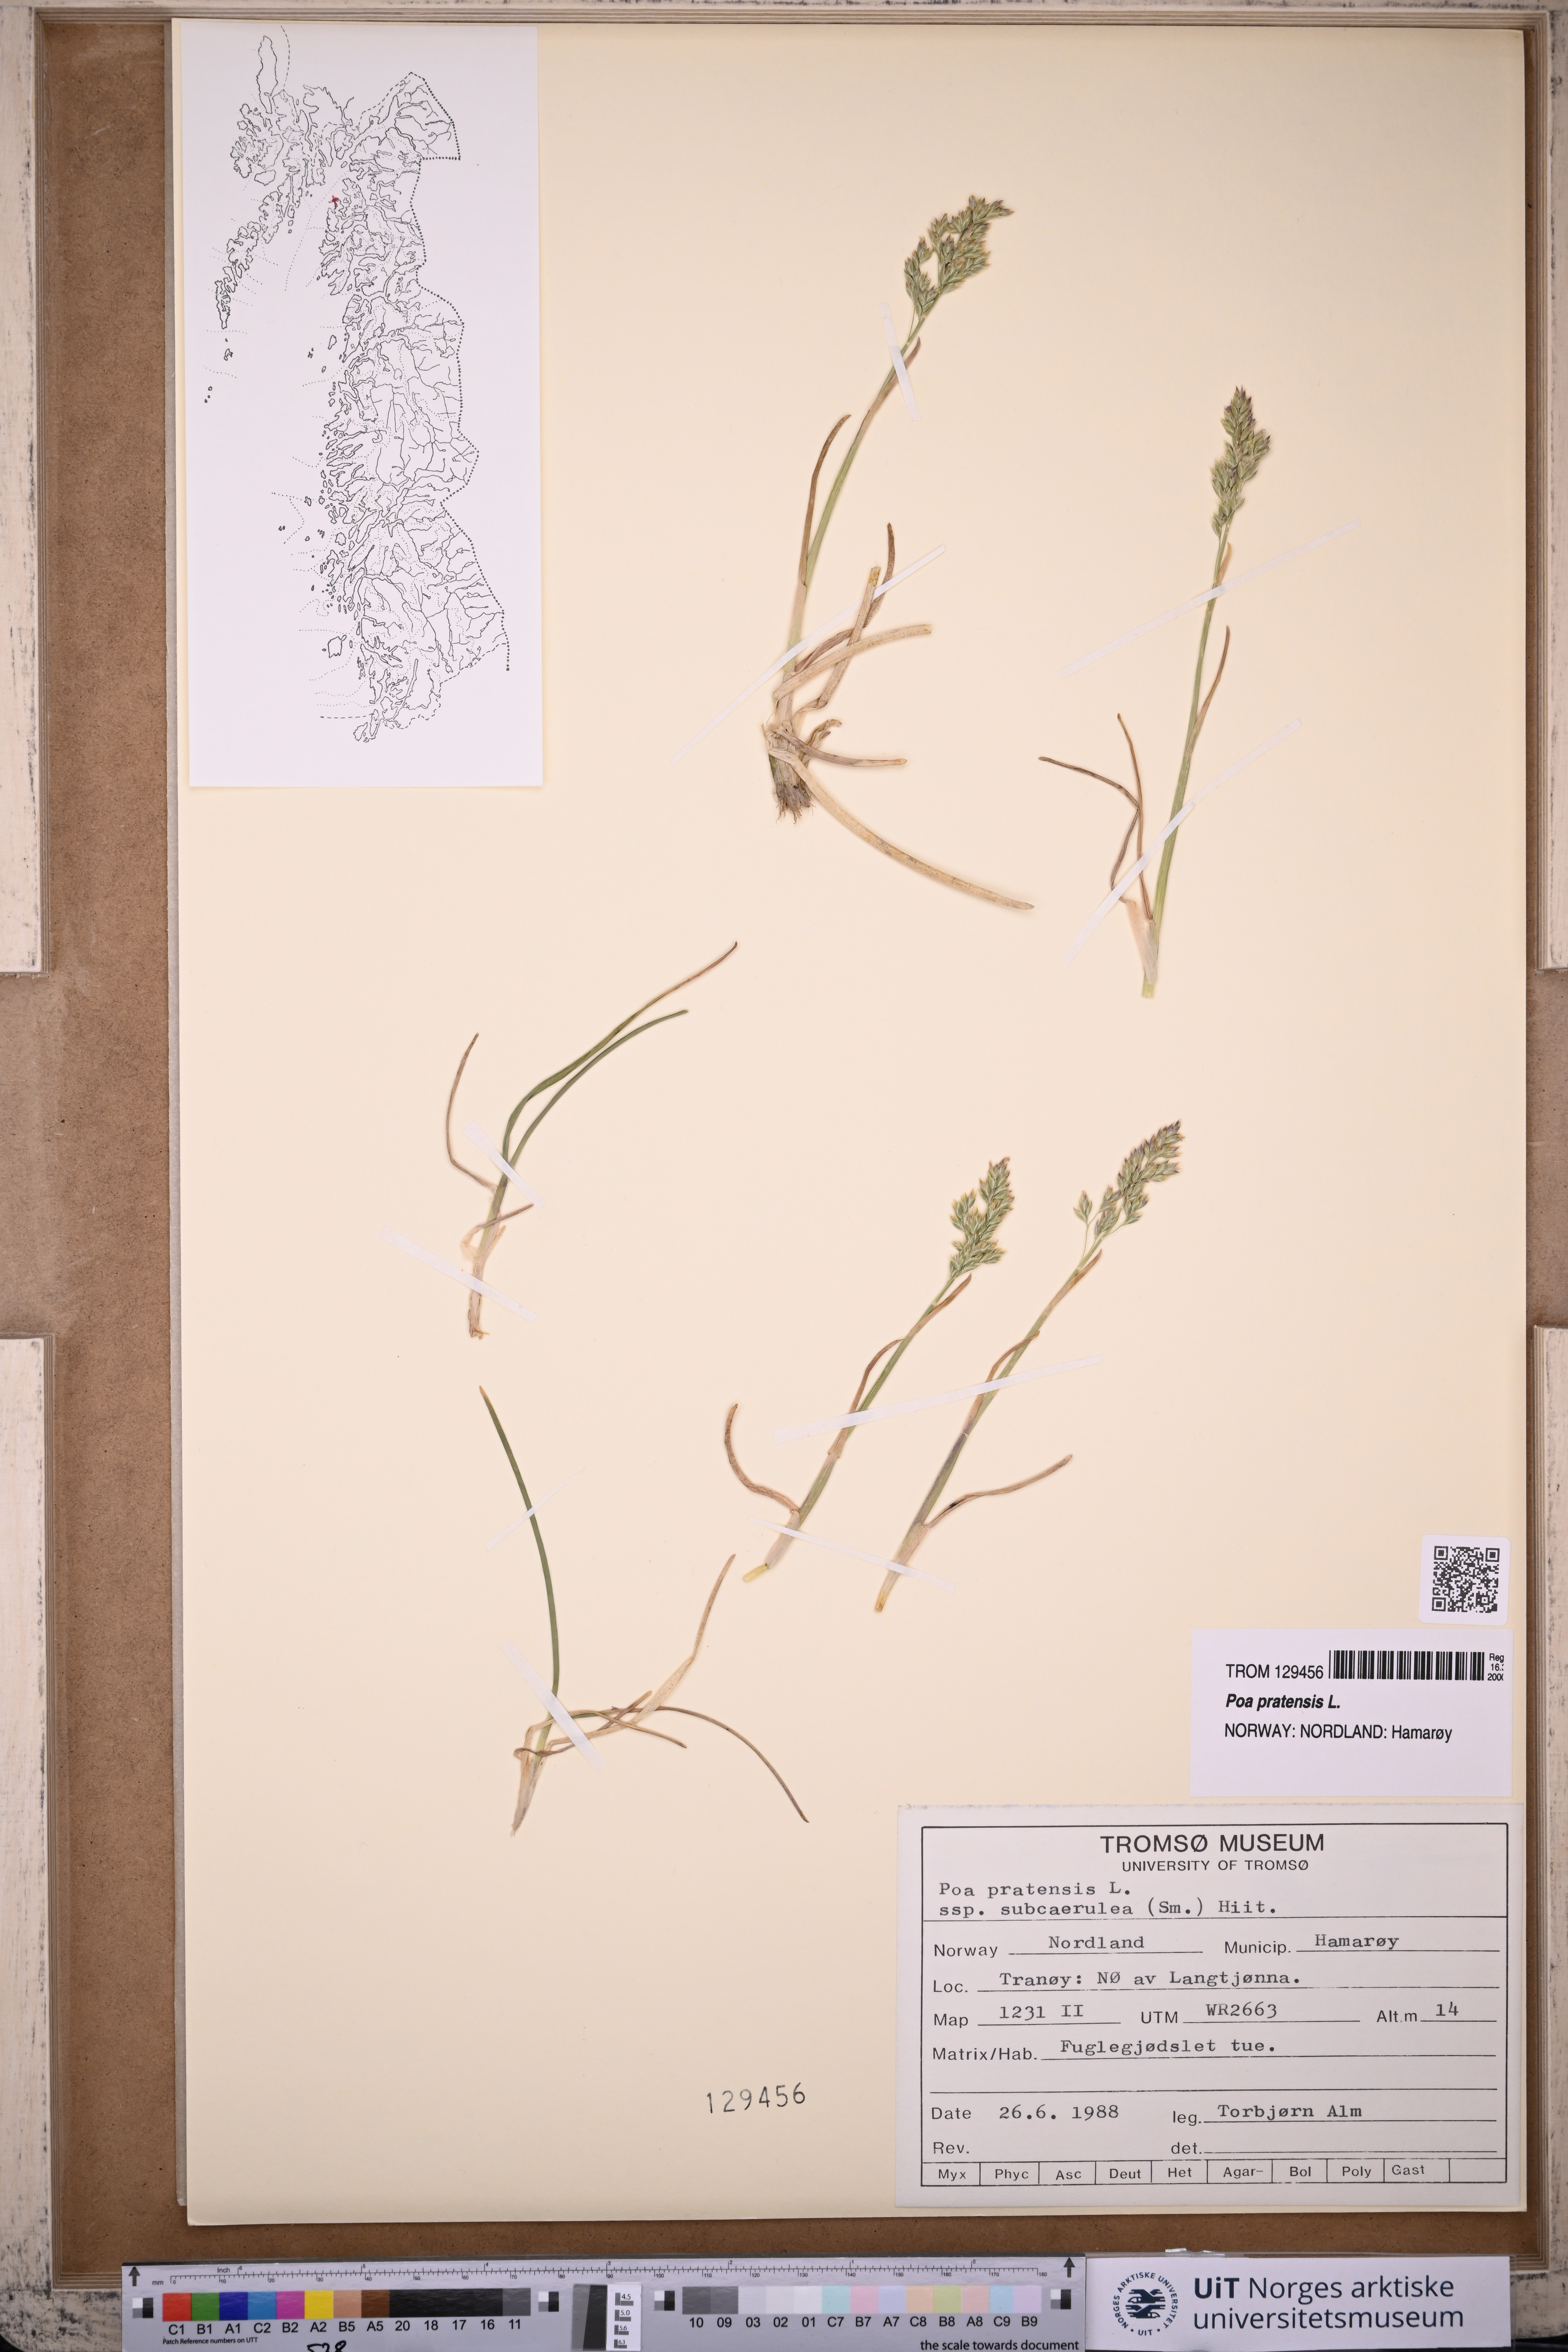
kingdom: Plantae
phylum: Tracheophyta
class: Liliopsida
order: Poales
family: Poaceae
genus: Poa
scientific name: Poa pratensis
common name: Kentucky bluegrass
